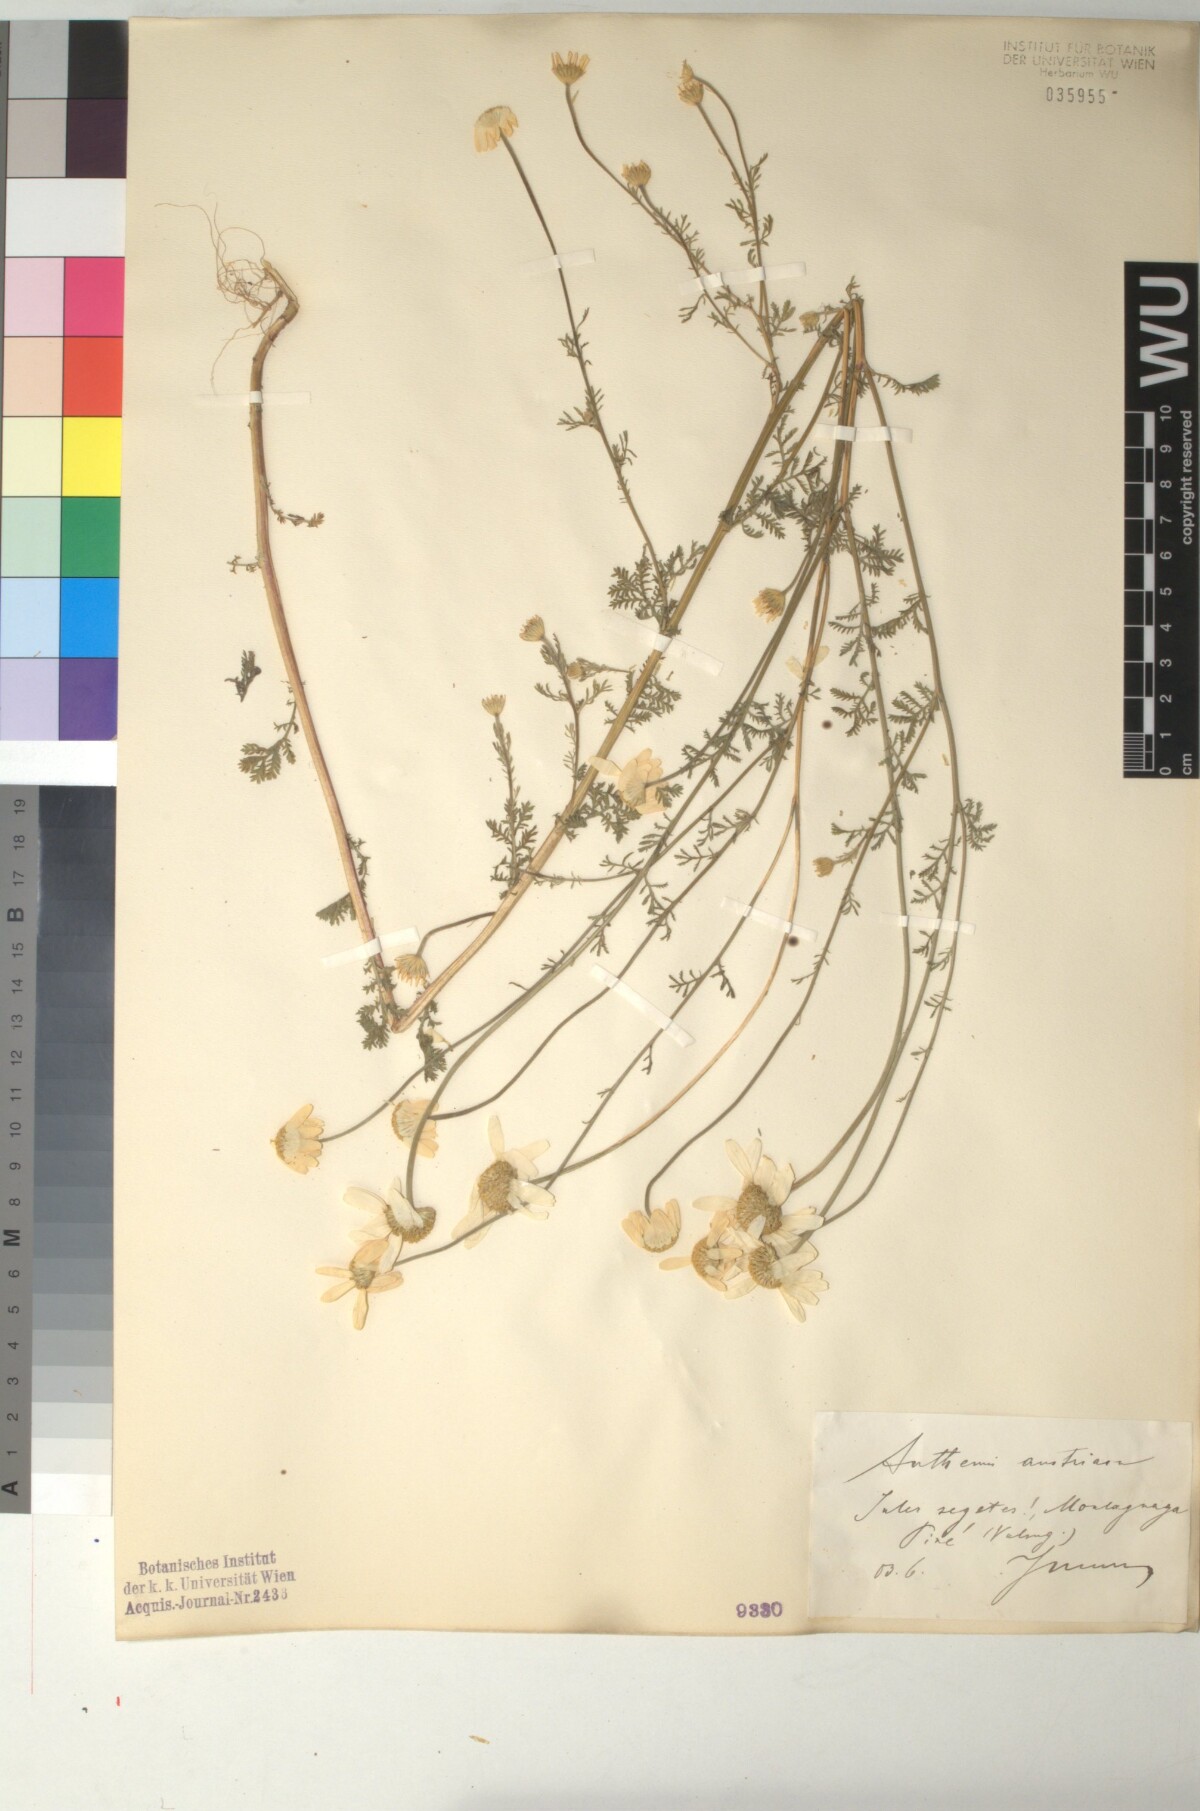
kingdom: Plantae
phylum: Tracheophyta
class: Magnoliopsida
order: Asterales
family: Asteraceae
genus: Cota
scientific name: Cota austriaca
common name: Austrian chamomile
